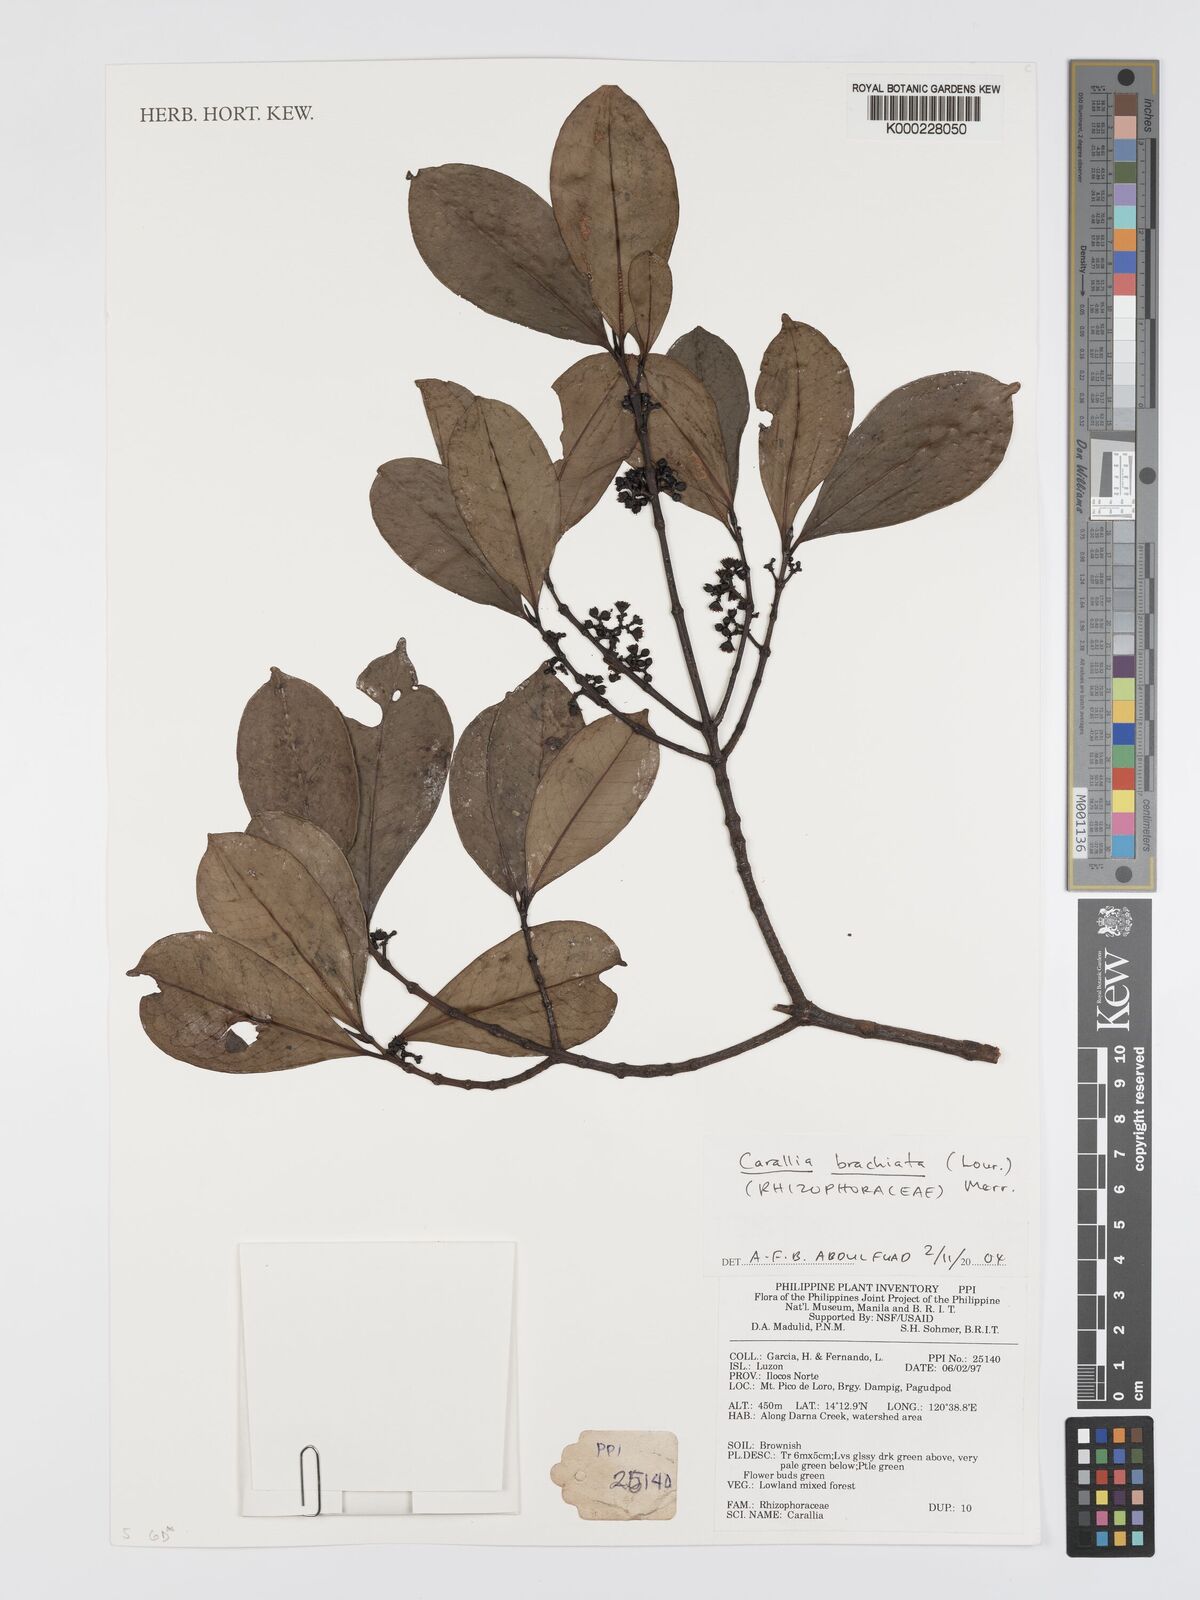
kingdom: Plantae
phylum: Tracheophyta
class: Magnoliopsida
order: Malpighiales
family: Rhizophoraceae
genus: Carallia
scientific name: Carallia brachiata
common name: Carallawood
